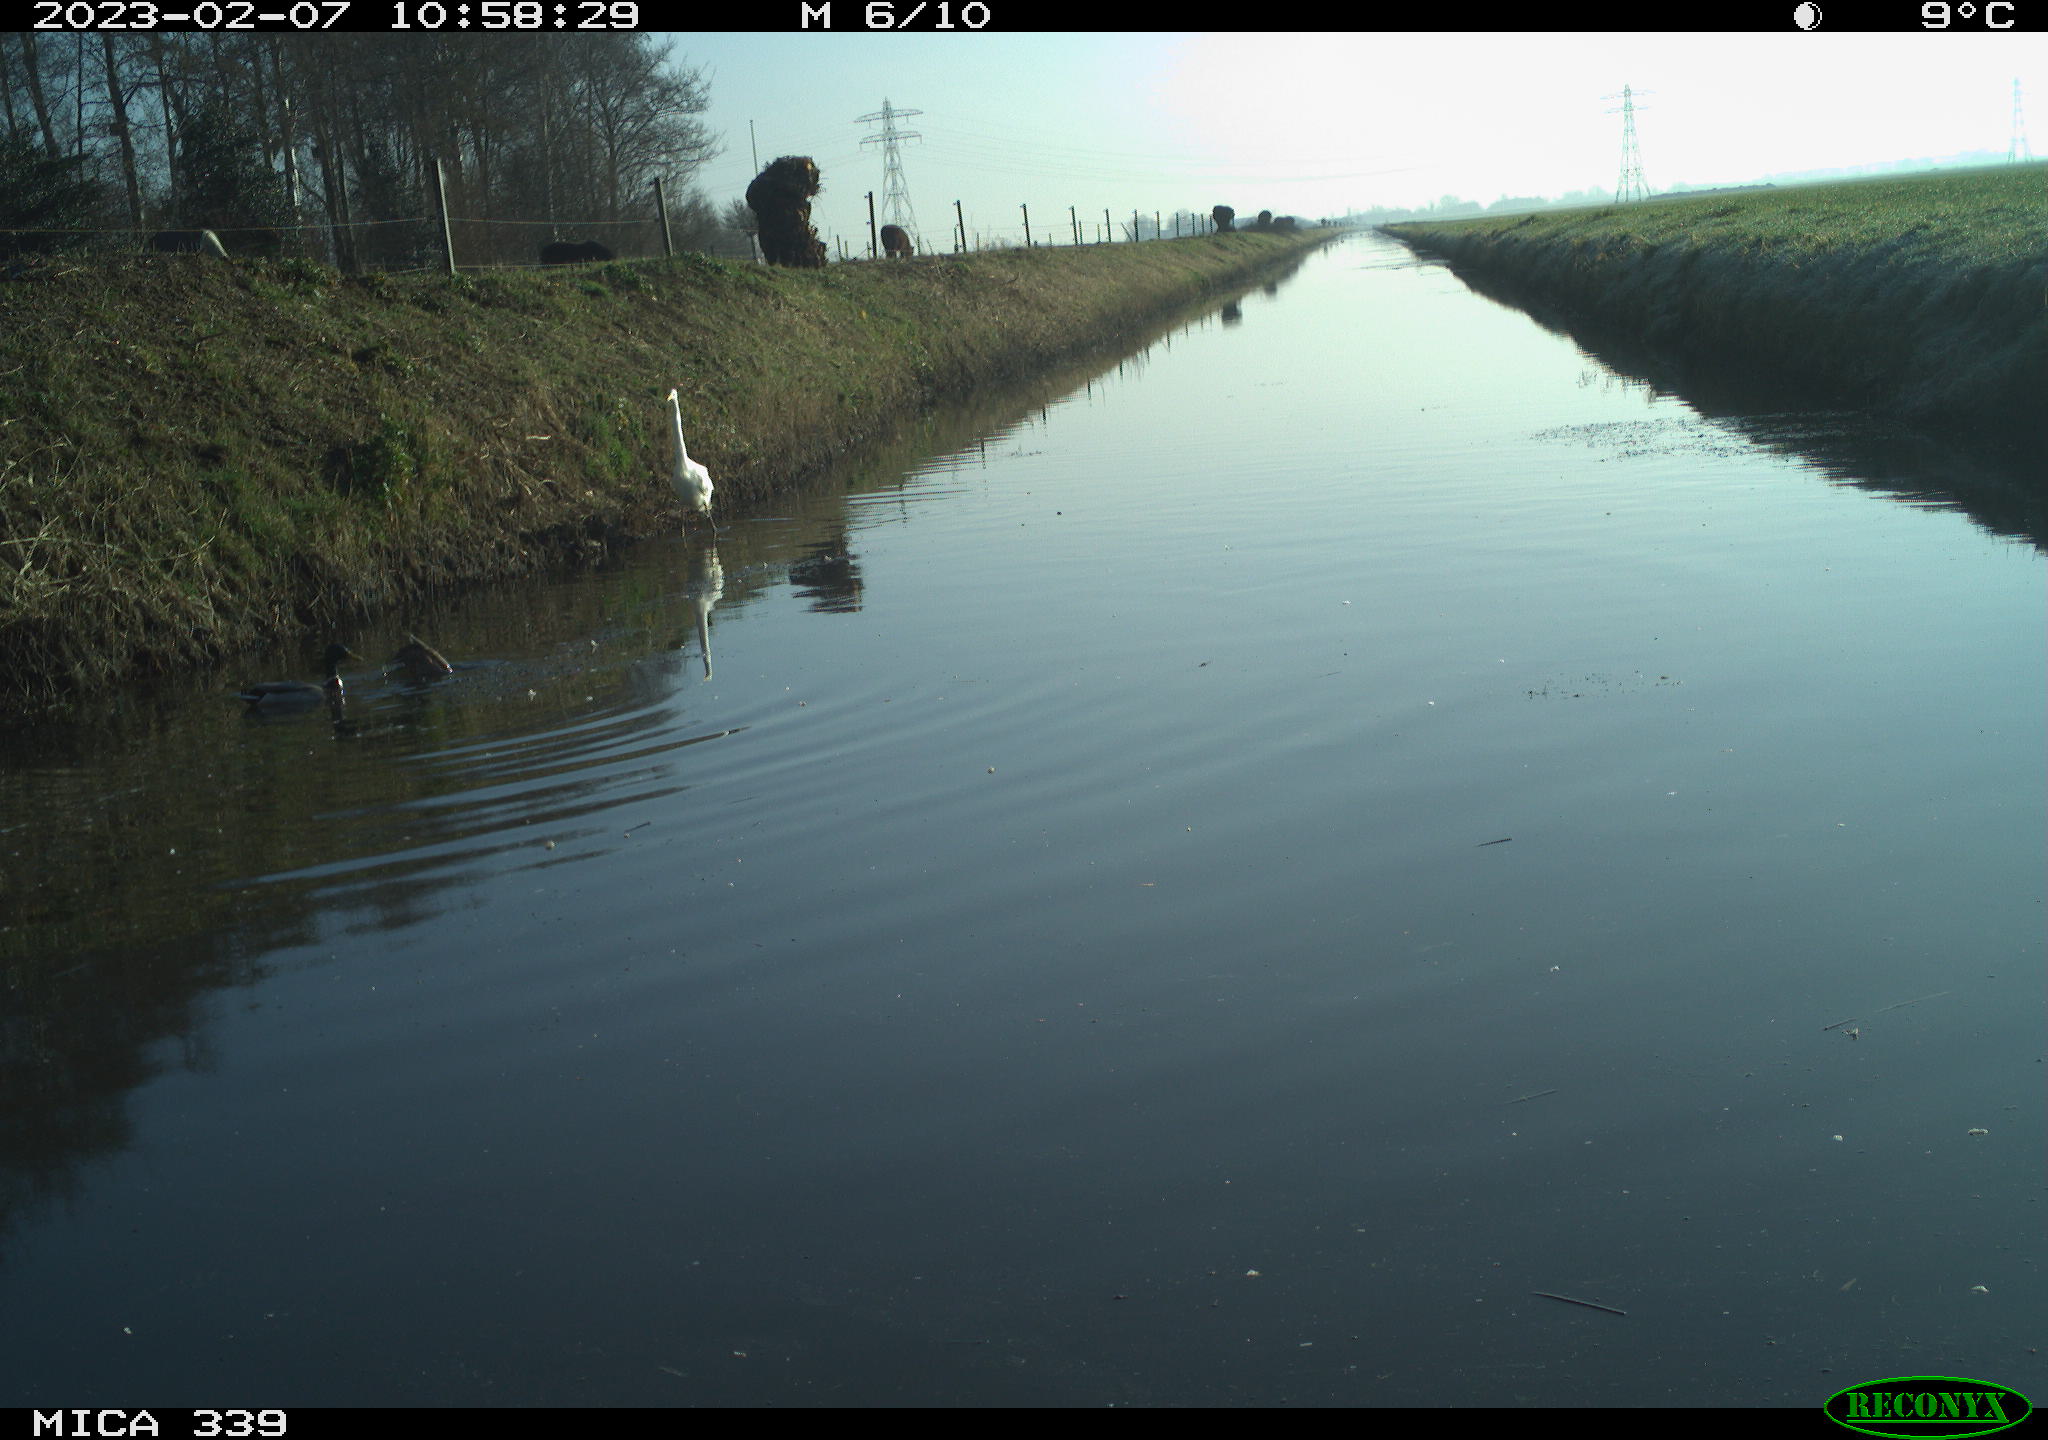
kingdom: Animalia
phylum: Chordata
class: Aves
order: Pelecaniformes
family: Ardeidae
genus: Ardea
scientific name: Ardea alba
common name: Great egret
